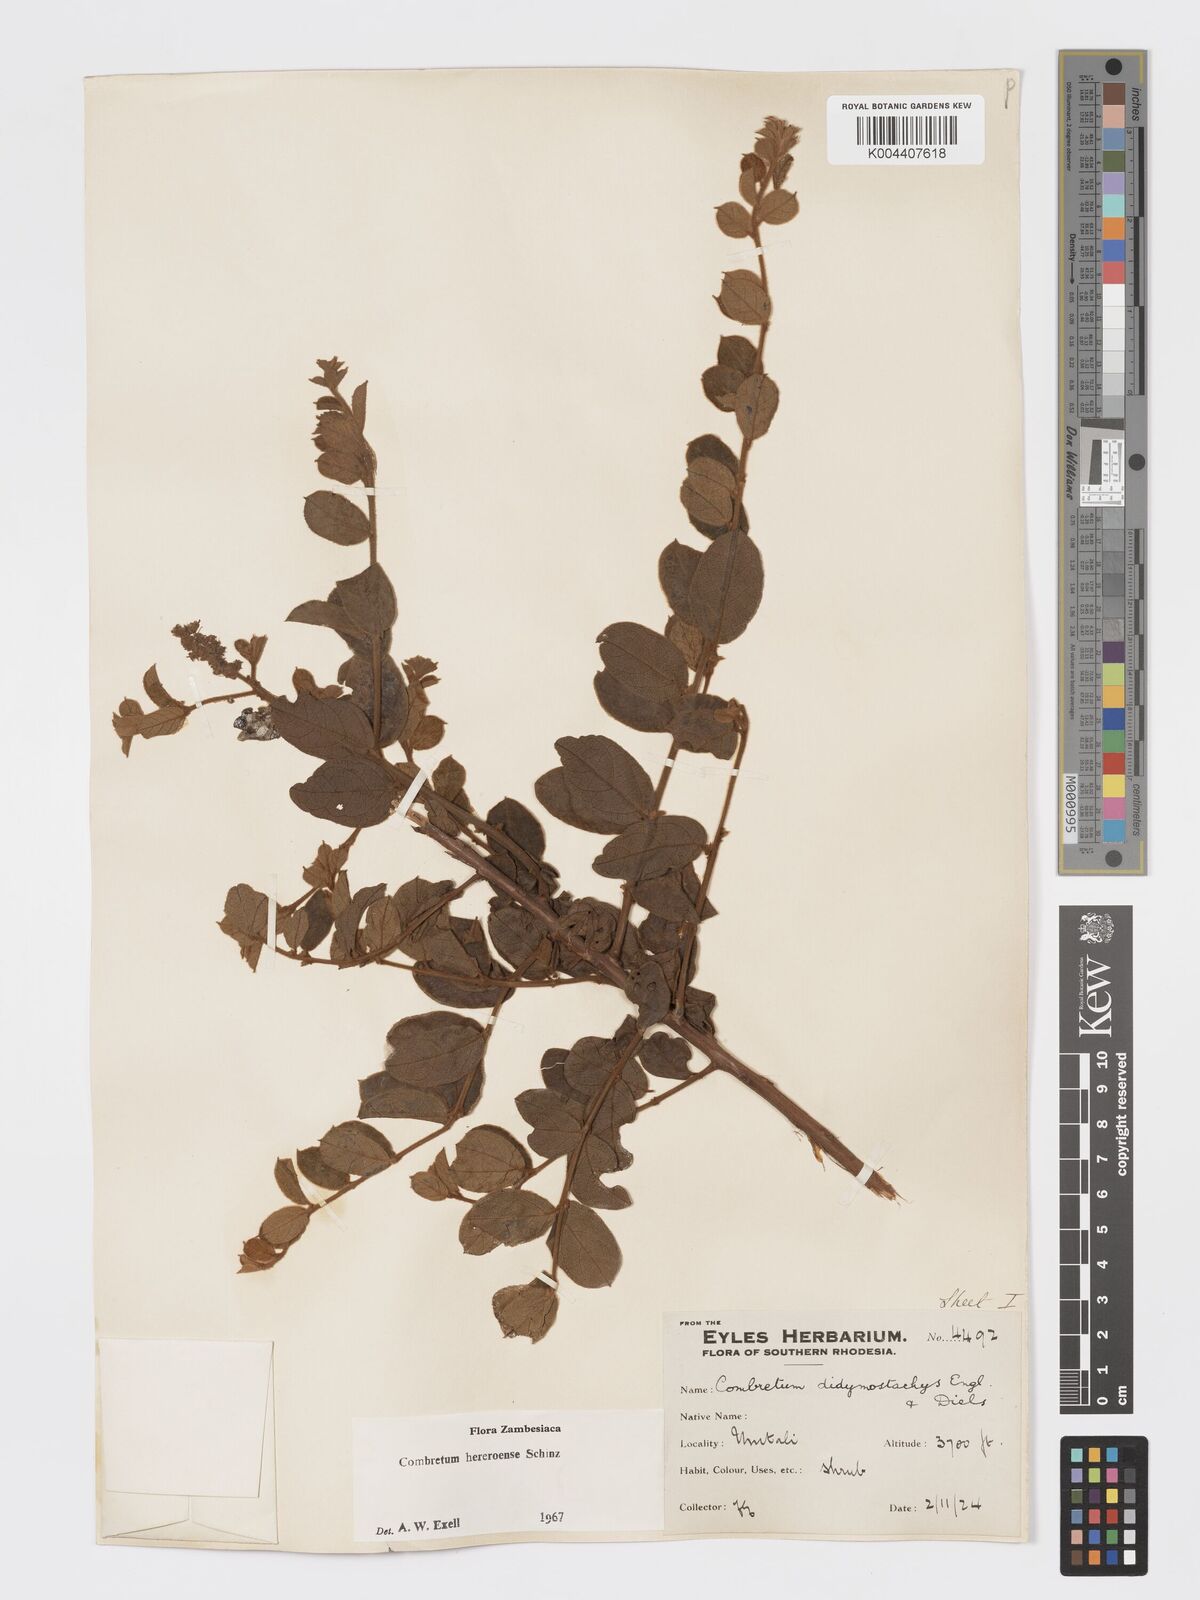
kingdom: Plantae
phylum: Tracheophyta
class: Magnoliopsida
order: Myrtales
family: Combretaceae
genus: Combretum
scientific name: Combretum hereroense
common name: Russet bushwillow
